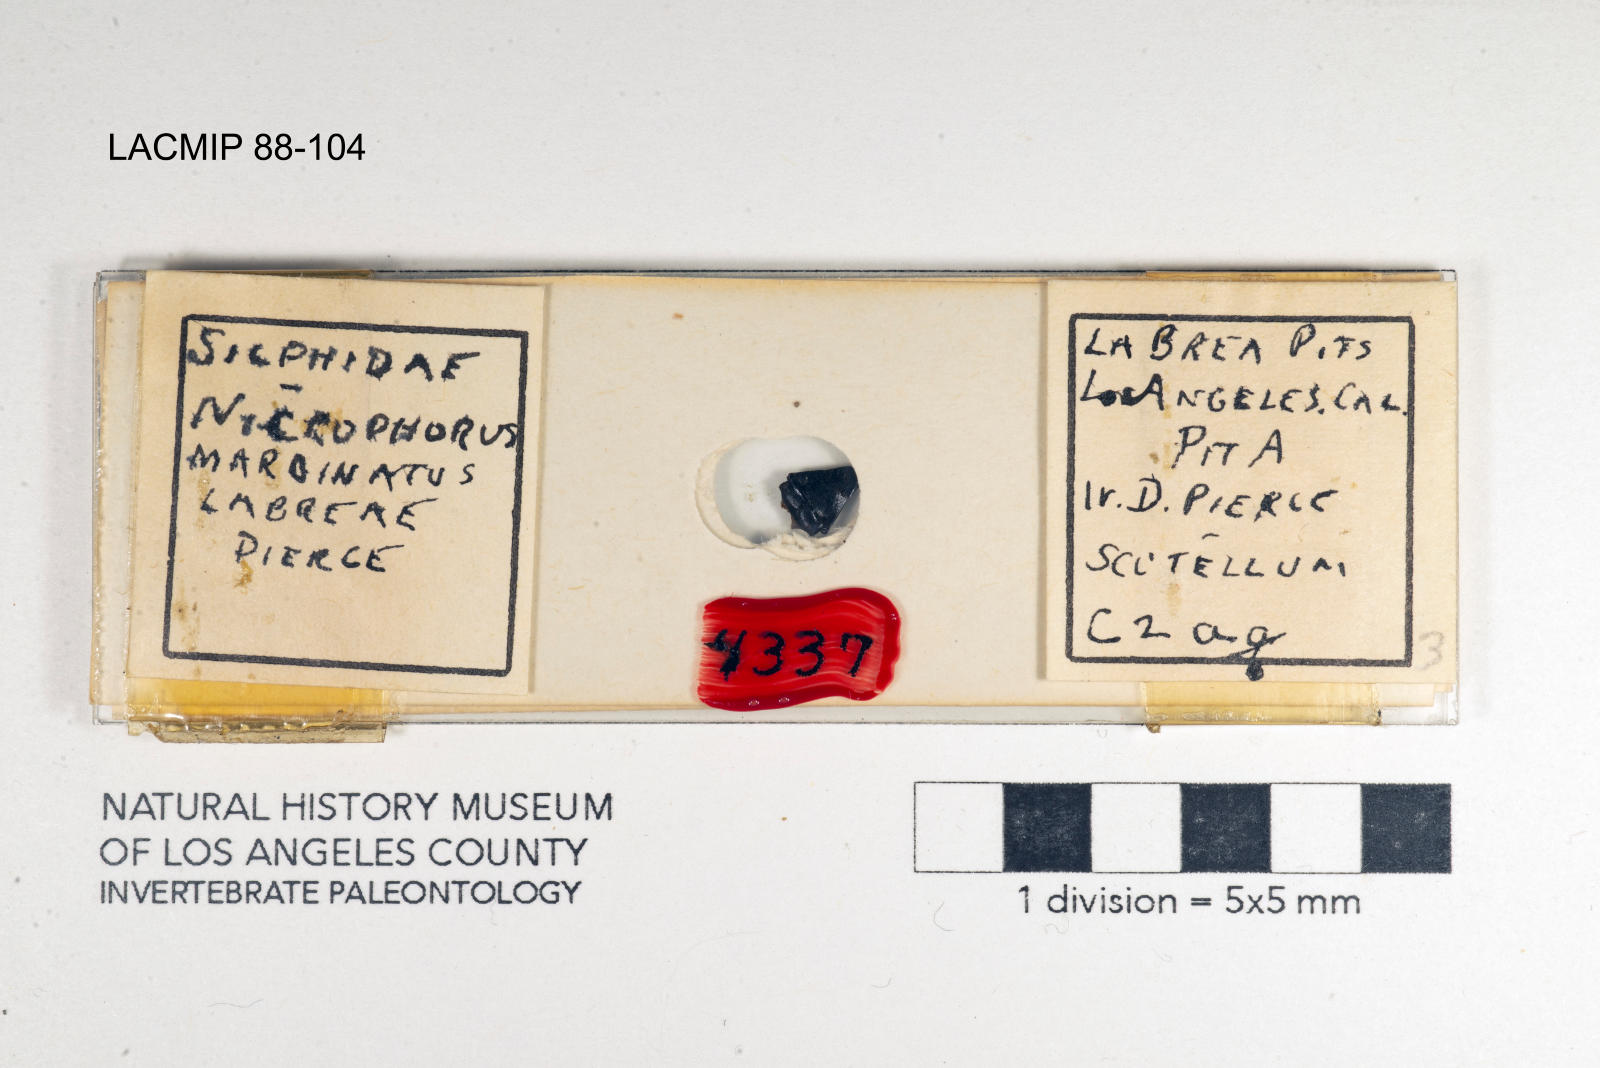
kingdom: Animalia
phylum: Arthropoda
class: Insecta
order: Coleoptera
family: Staphylinidae
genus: Nicrophorus
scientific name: Nicrophorus marginatus
